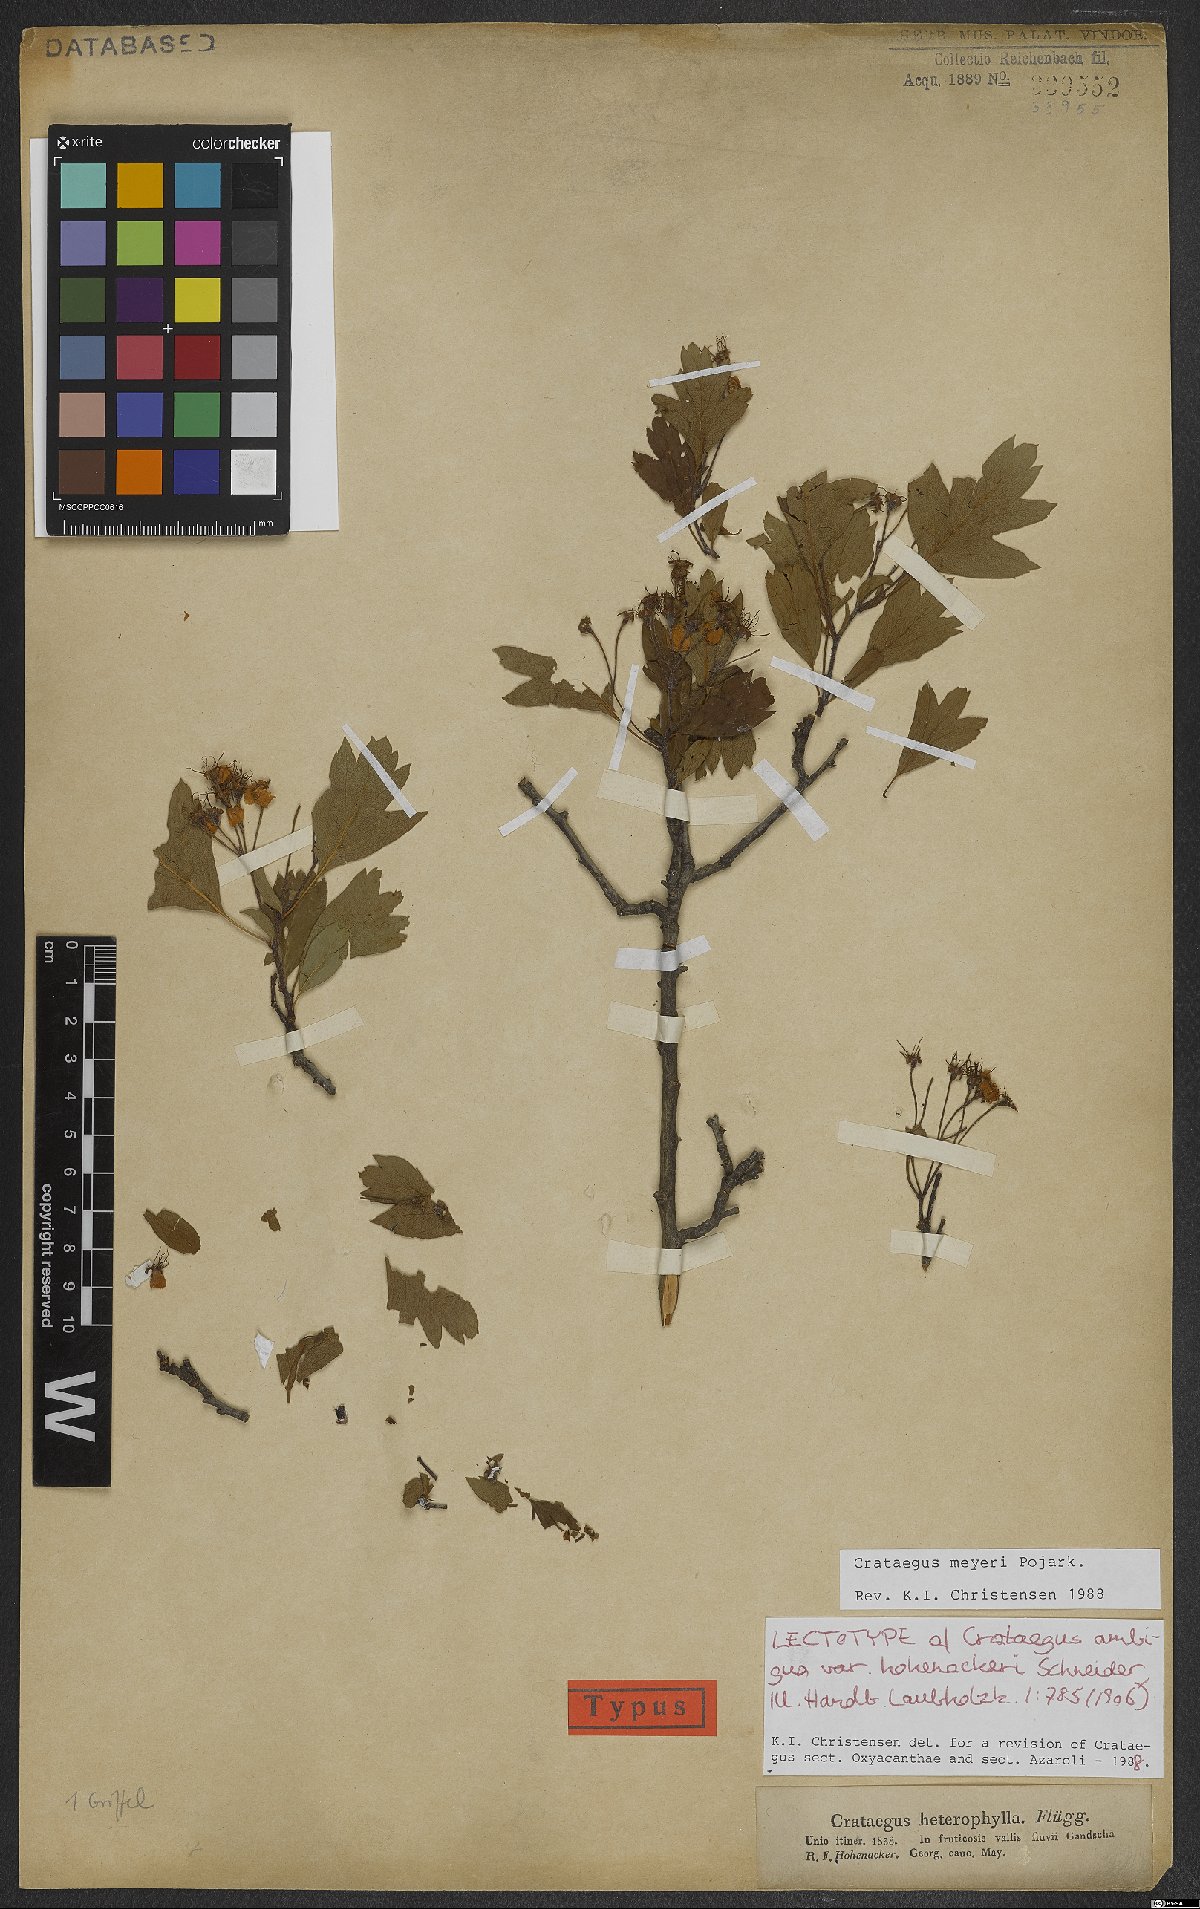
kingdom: Plantae
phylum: Tracheophyta
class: Magnoliopsida
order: Rosales
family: Rosaceae
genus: Crataegus
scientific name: Crataegus meyeri
